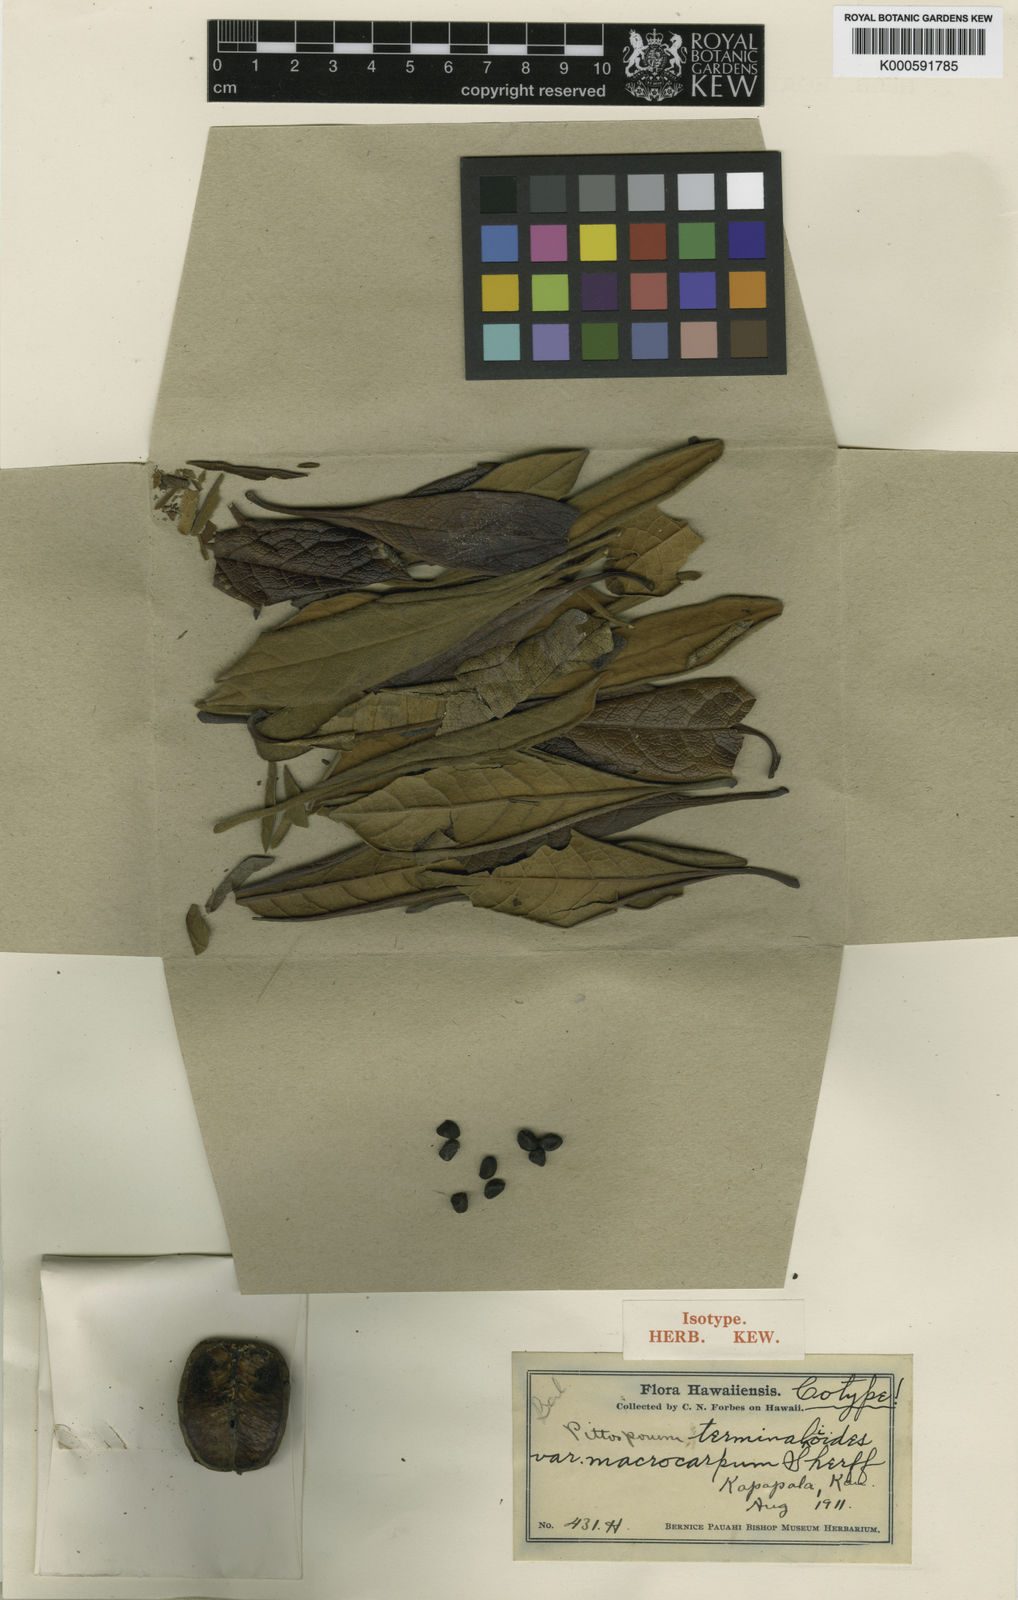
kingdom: Plantae
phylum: Tracheophyta
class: Magnoliopsida
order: Apiales
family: Pittosporaceae
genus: Pittosporum
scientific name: Pittosporum terminalioides
